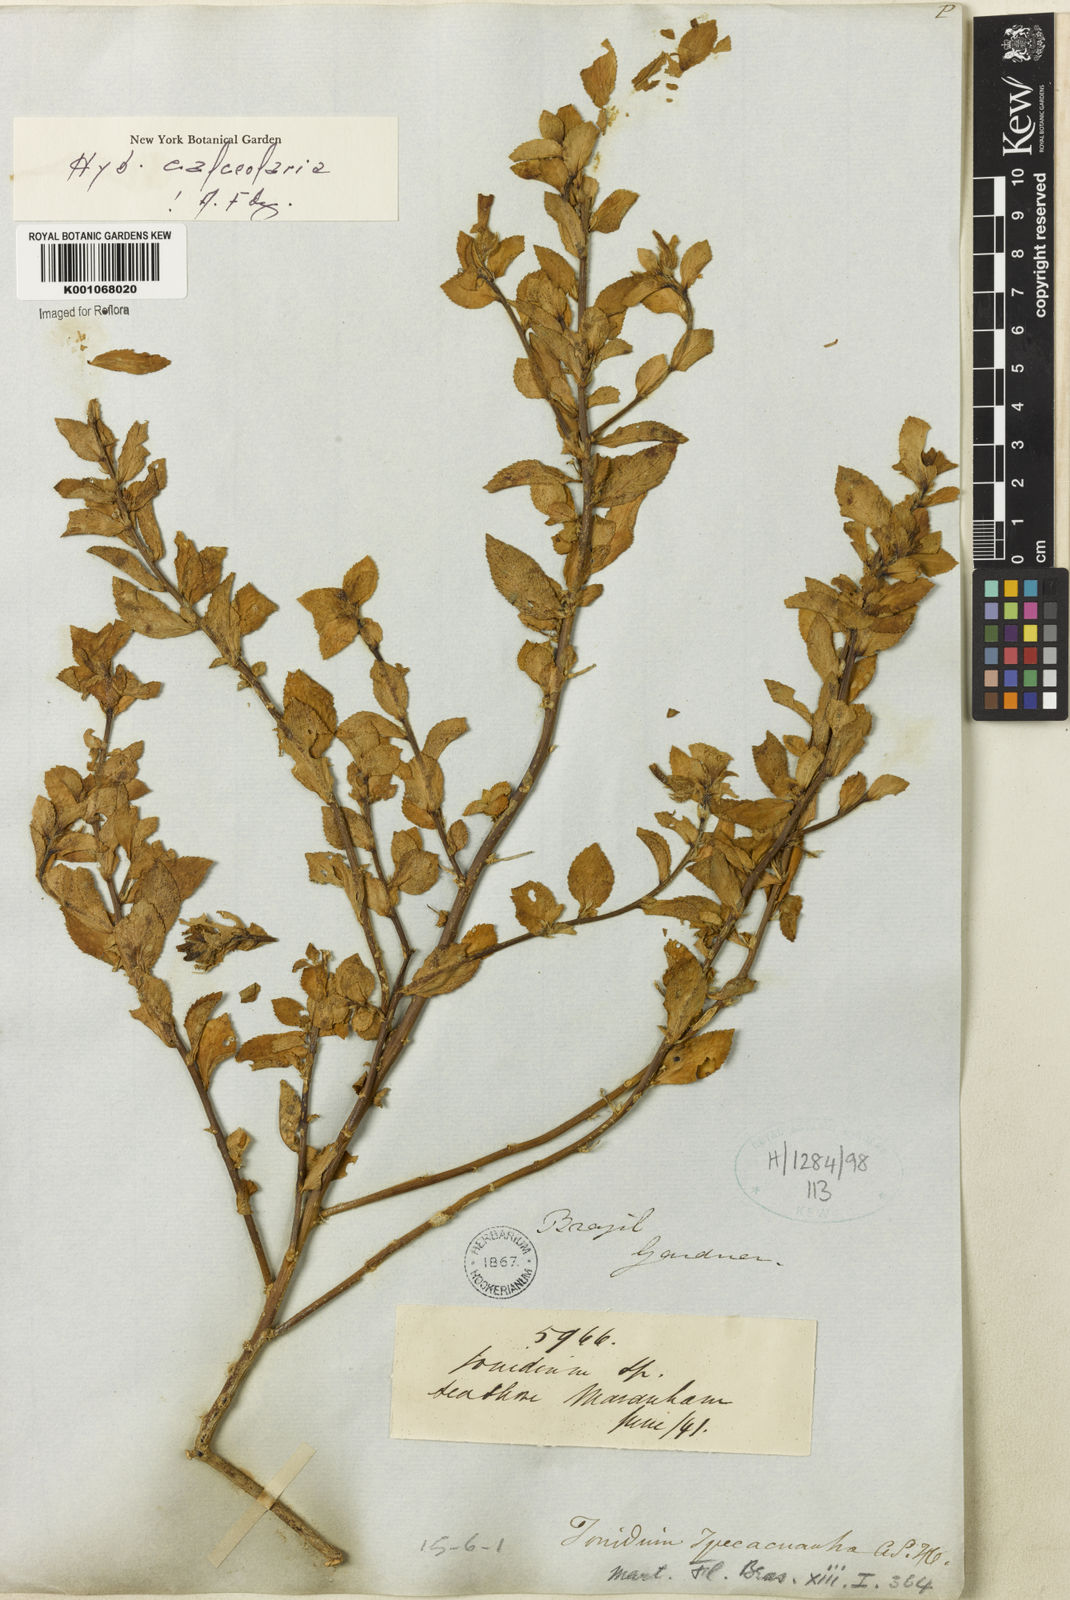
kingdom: Plantae
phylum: Tracheophyta
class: Magnoliopsida
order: Malpighiales
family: Violaceae
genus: Hybanthus
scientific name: Hybanthus
